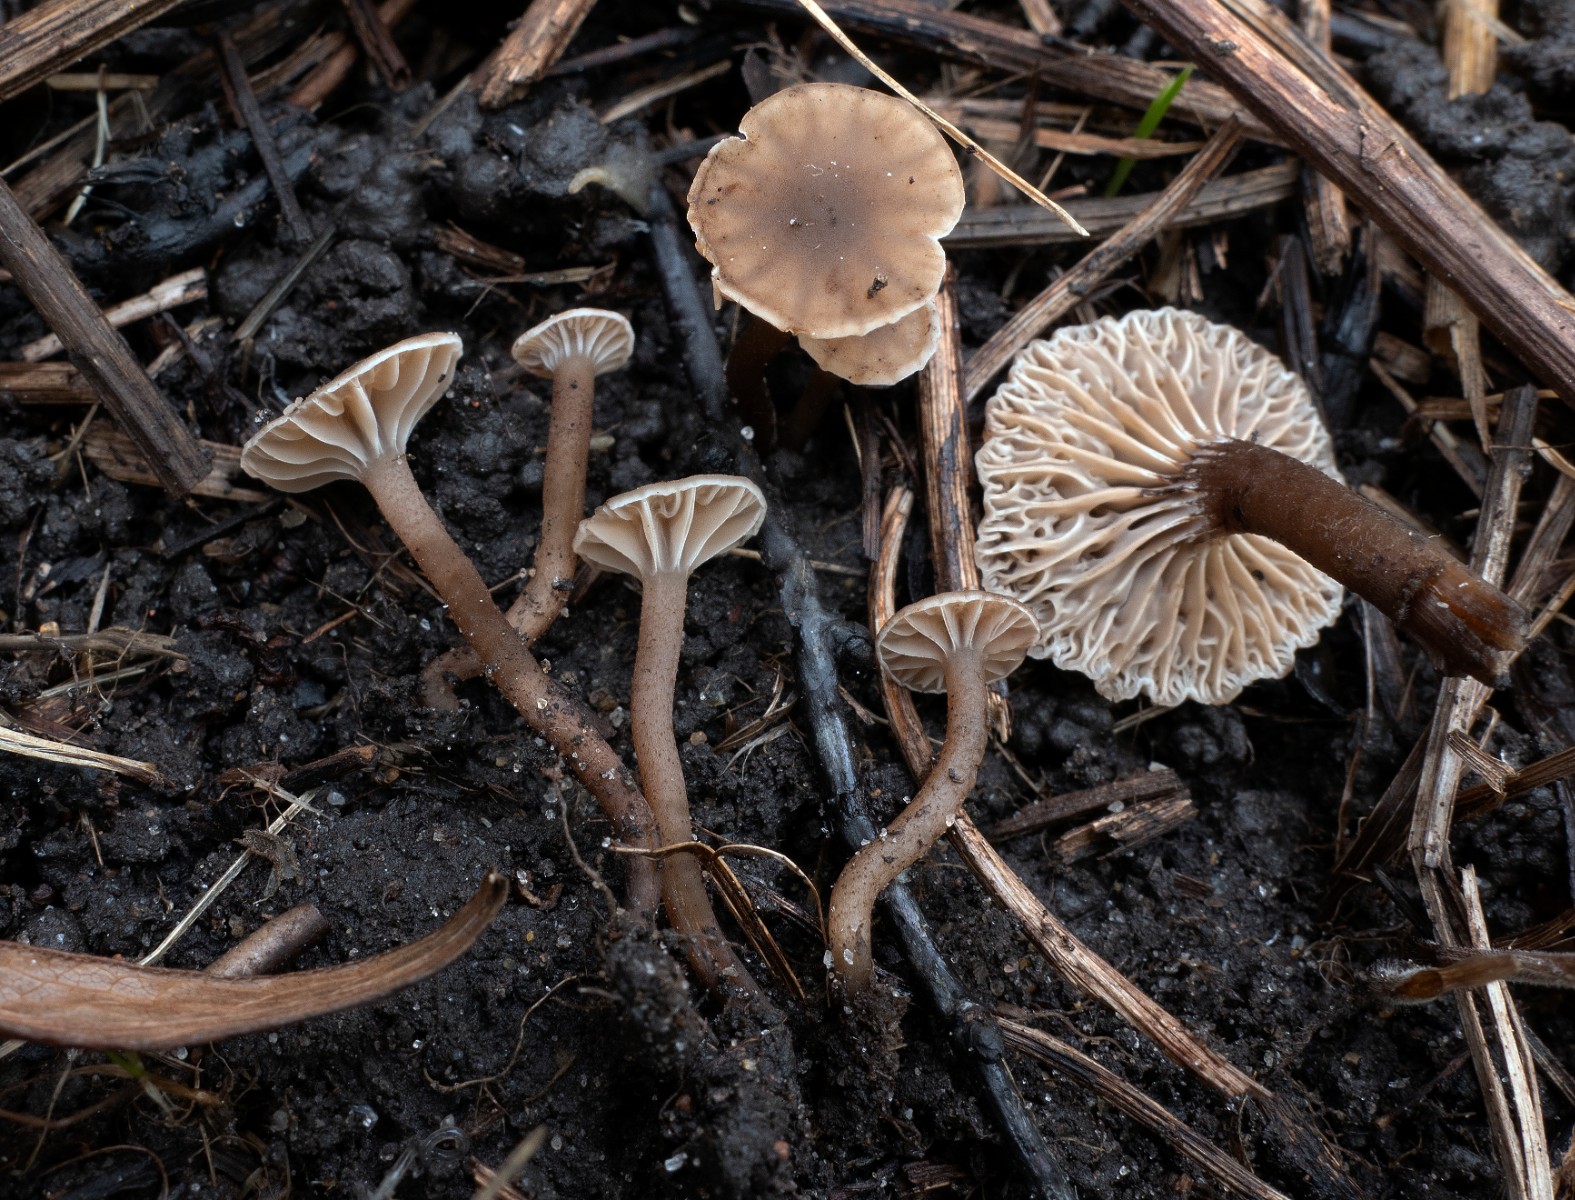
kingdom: Fungi
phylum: Basidiomycota
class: Agaricomycetes
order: Agaricales
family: Clavariaceae
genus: Hodophilus
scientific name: Hodophilus
